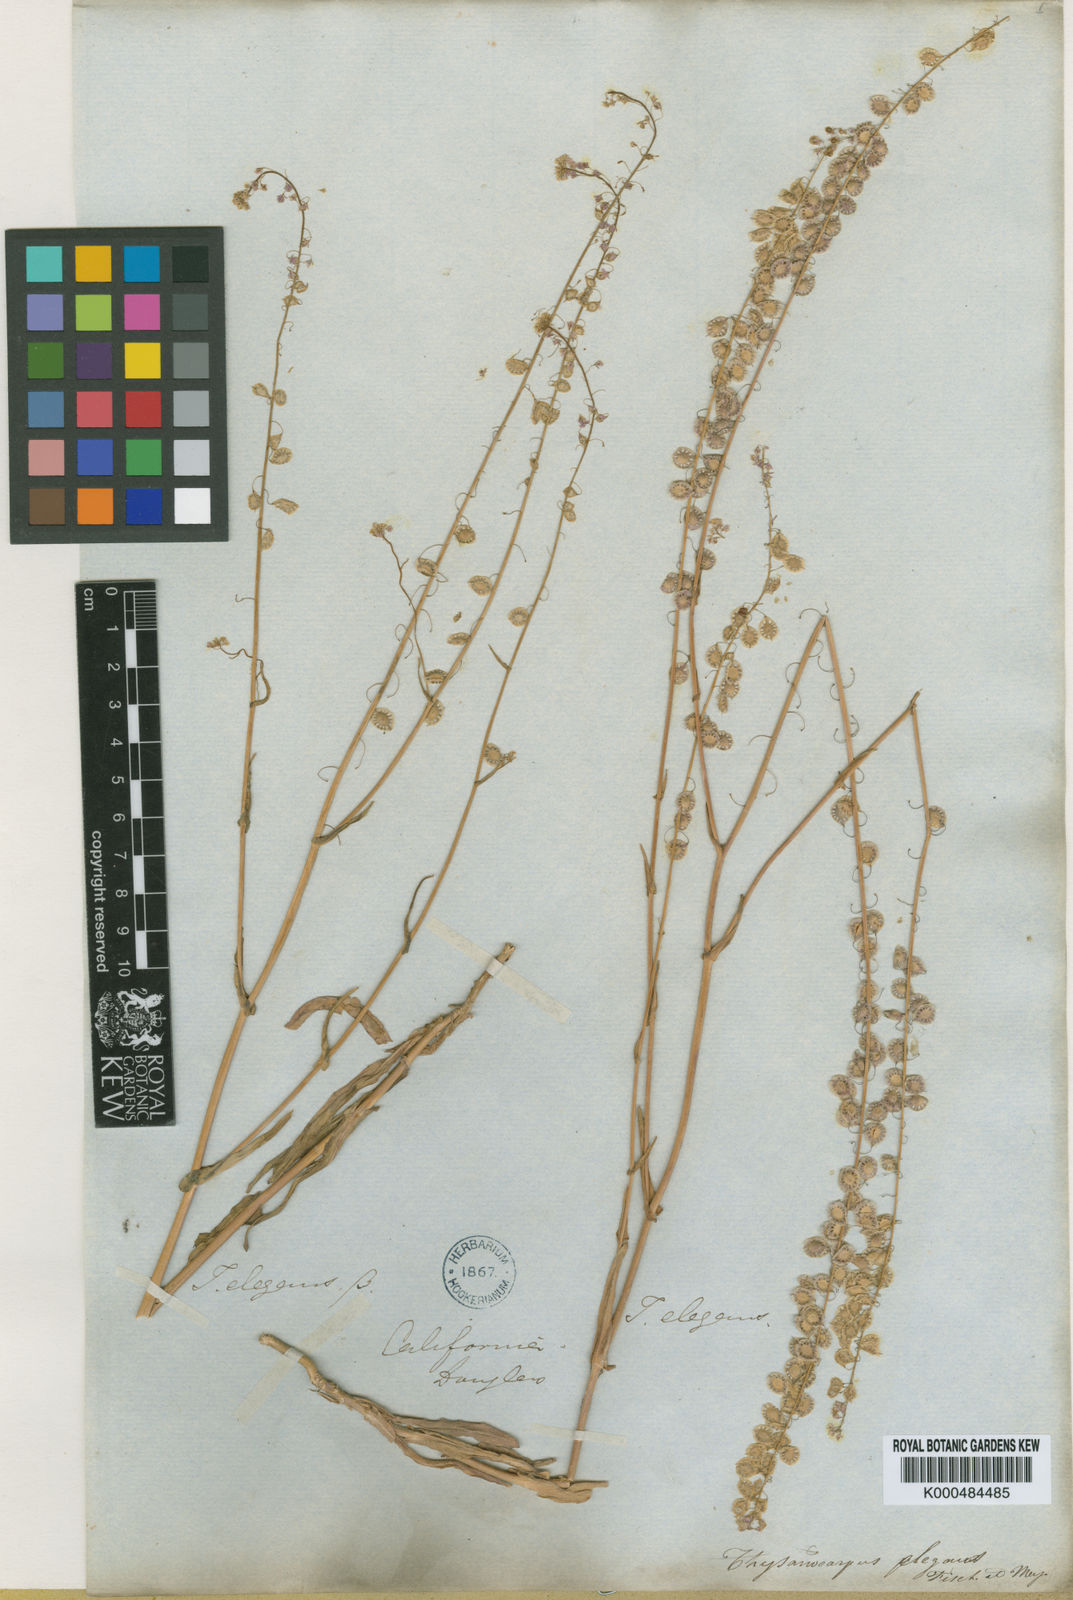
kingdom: Plantae
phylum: Tracheophyta
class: Magnoliopsida
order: Brassicales
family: Brassicaceae
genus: Thysanocarpus
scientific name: Thysanocarpus curvipes
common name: Sand fringepod
